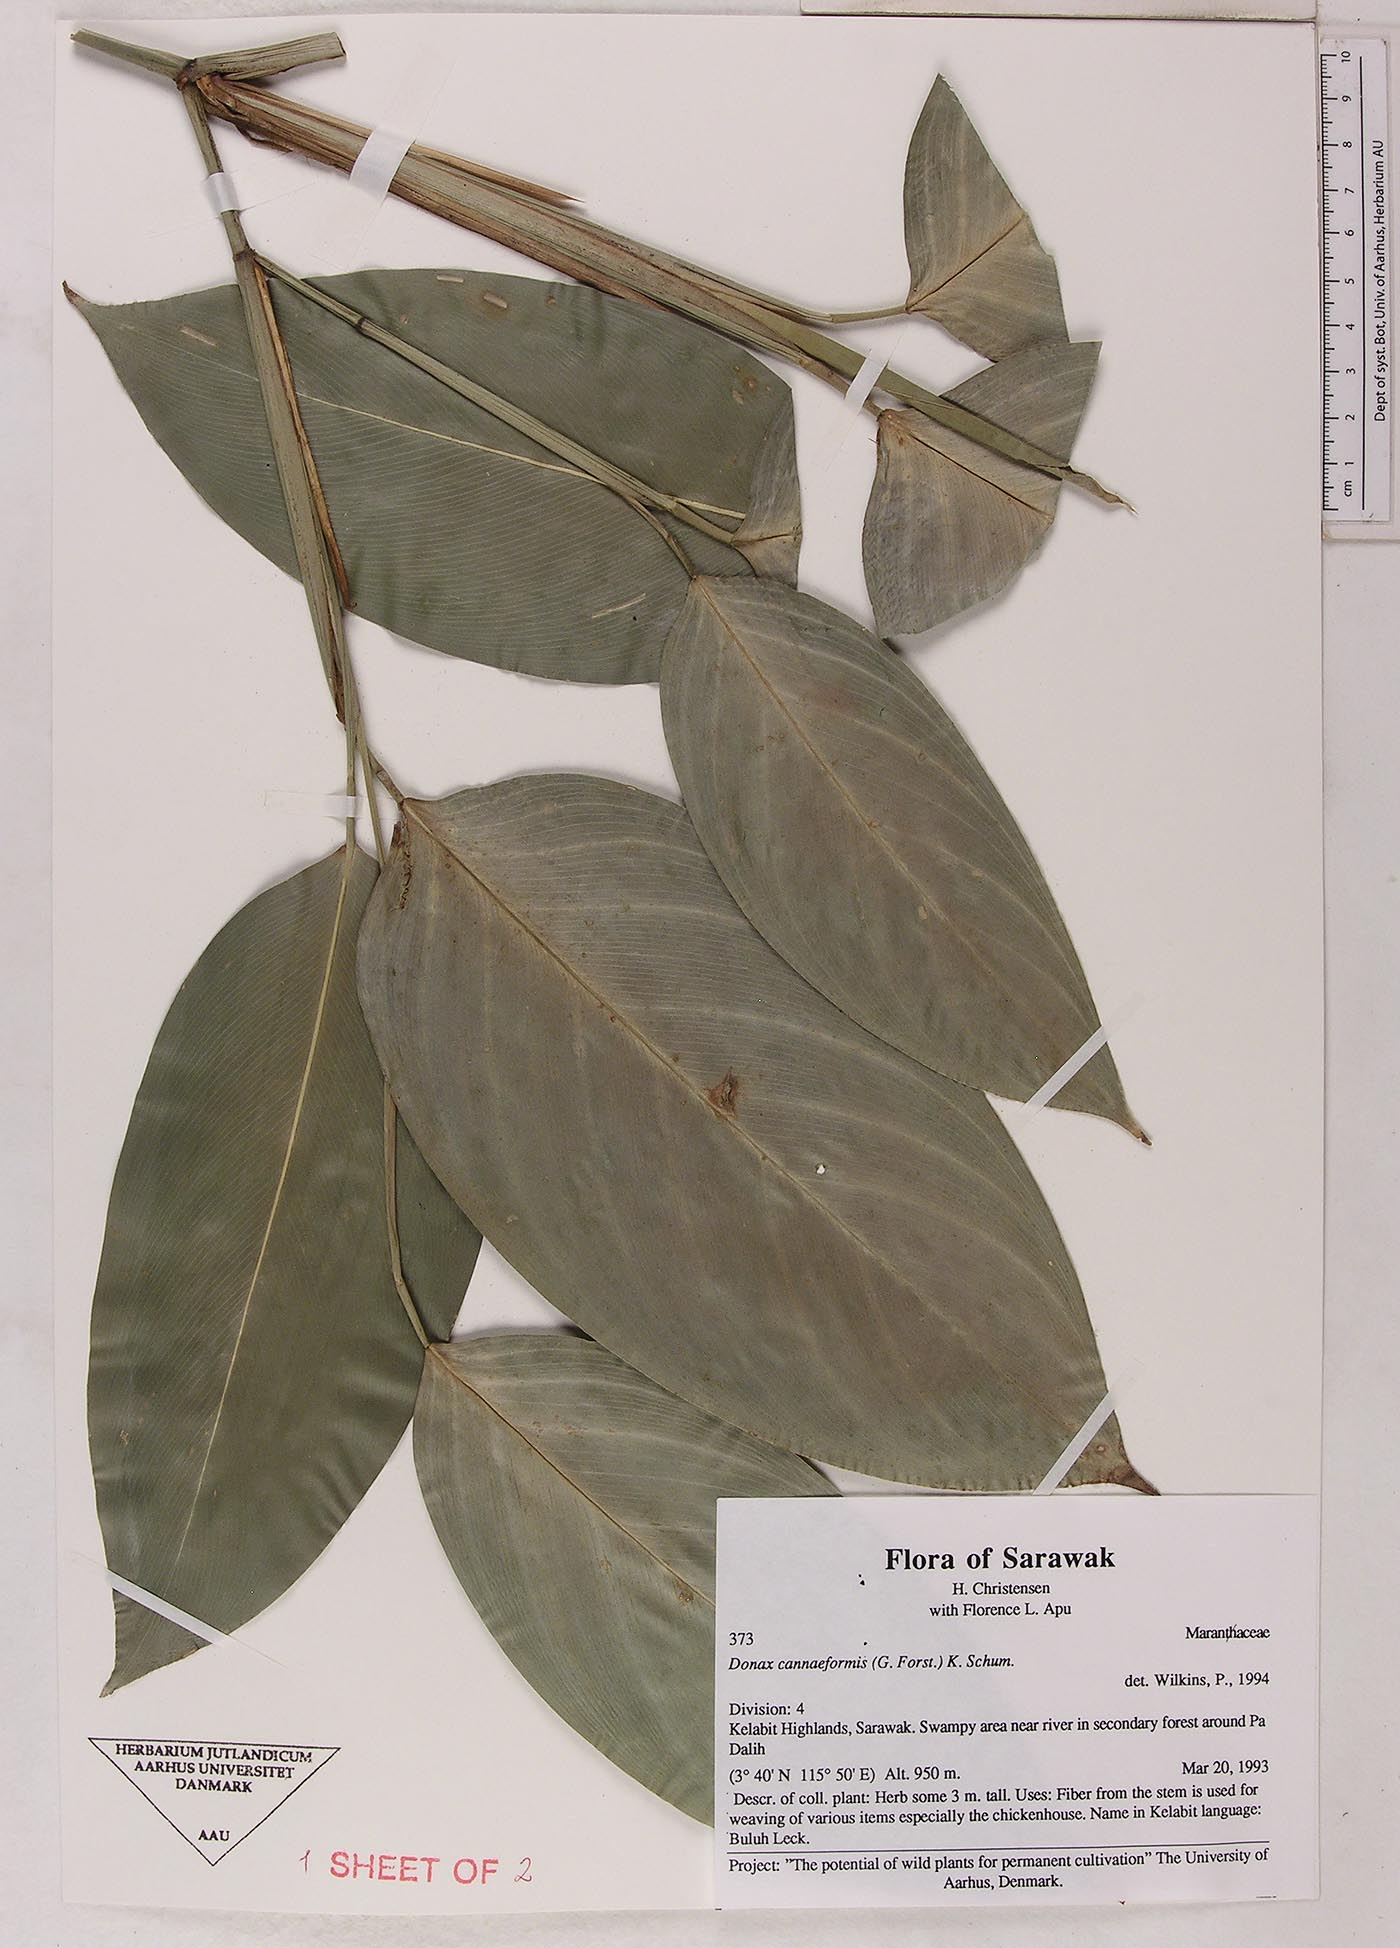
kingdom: Plantae
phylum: Tracheophyta
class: Liliopsida
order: Zingiberales
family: Marantaceae
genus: Donax
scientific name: Donax canniformis
